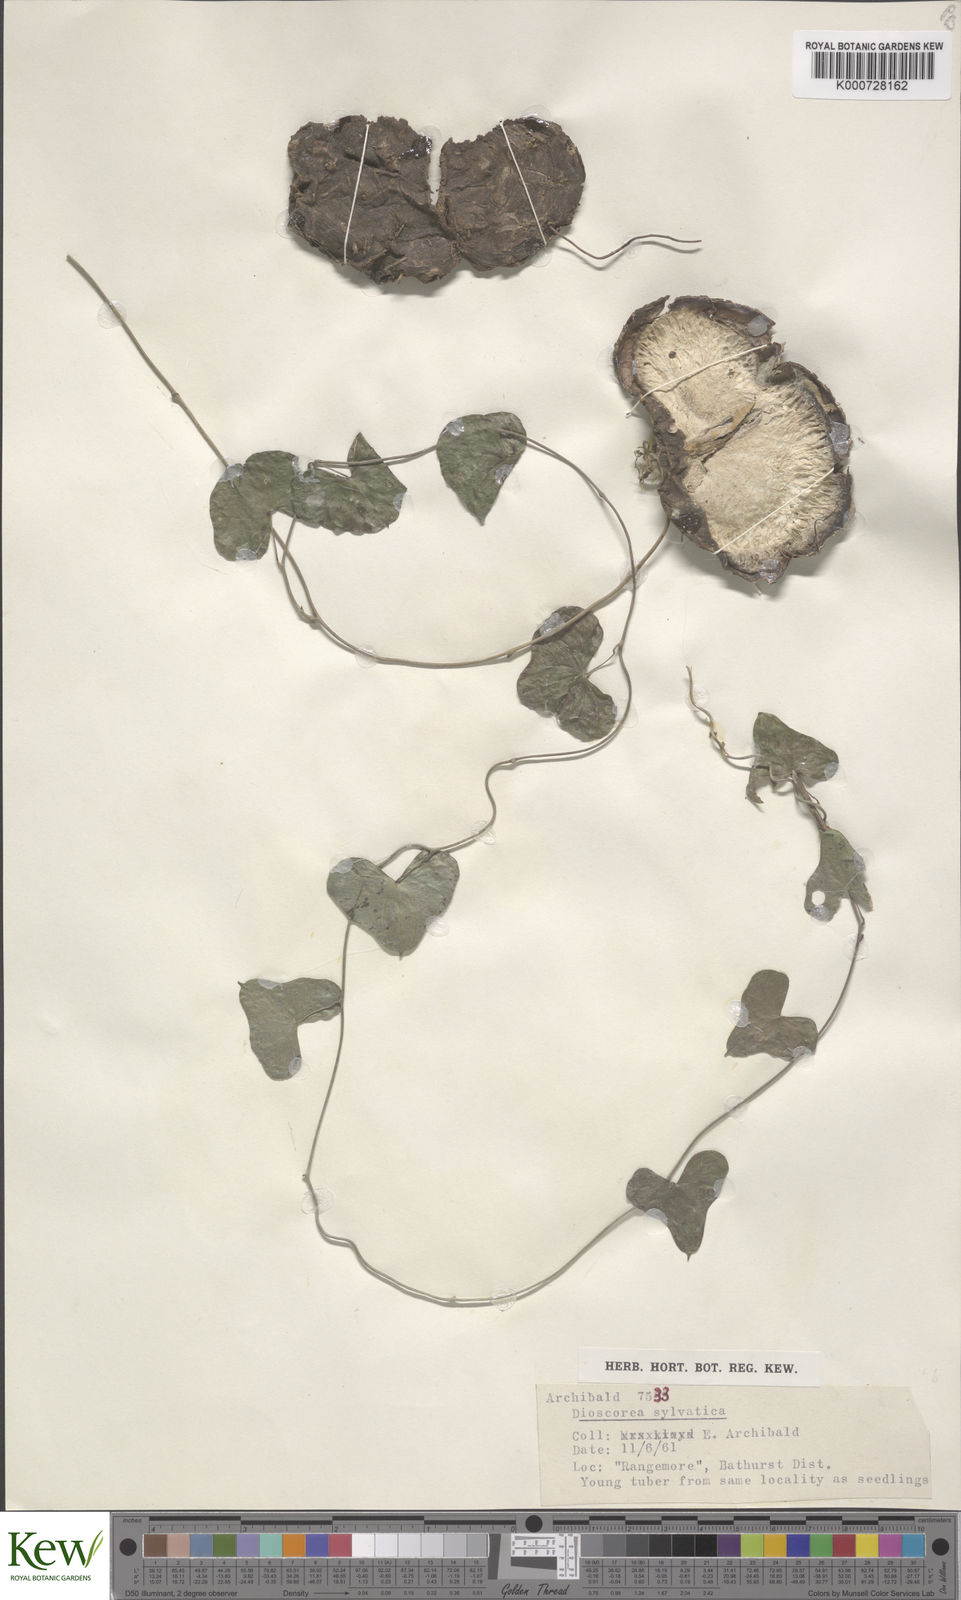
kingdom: Plantae
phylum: Tracheophyta
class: Liliopsida
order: Dioscoreales
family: Dioscoreaceae
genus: Dioscorea
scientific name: Dioscorea sylvatica
